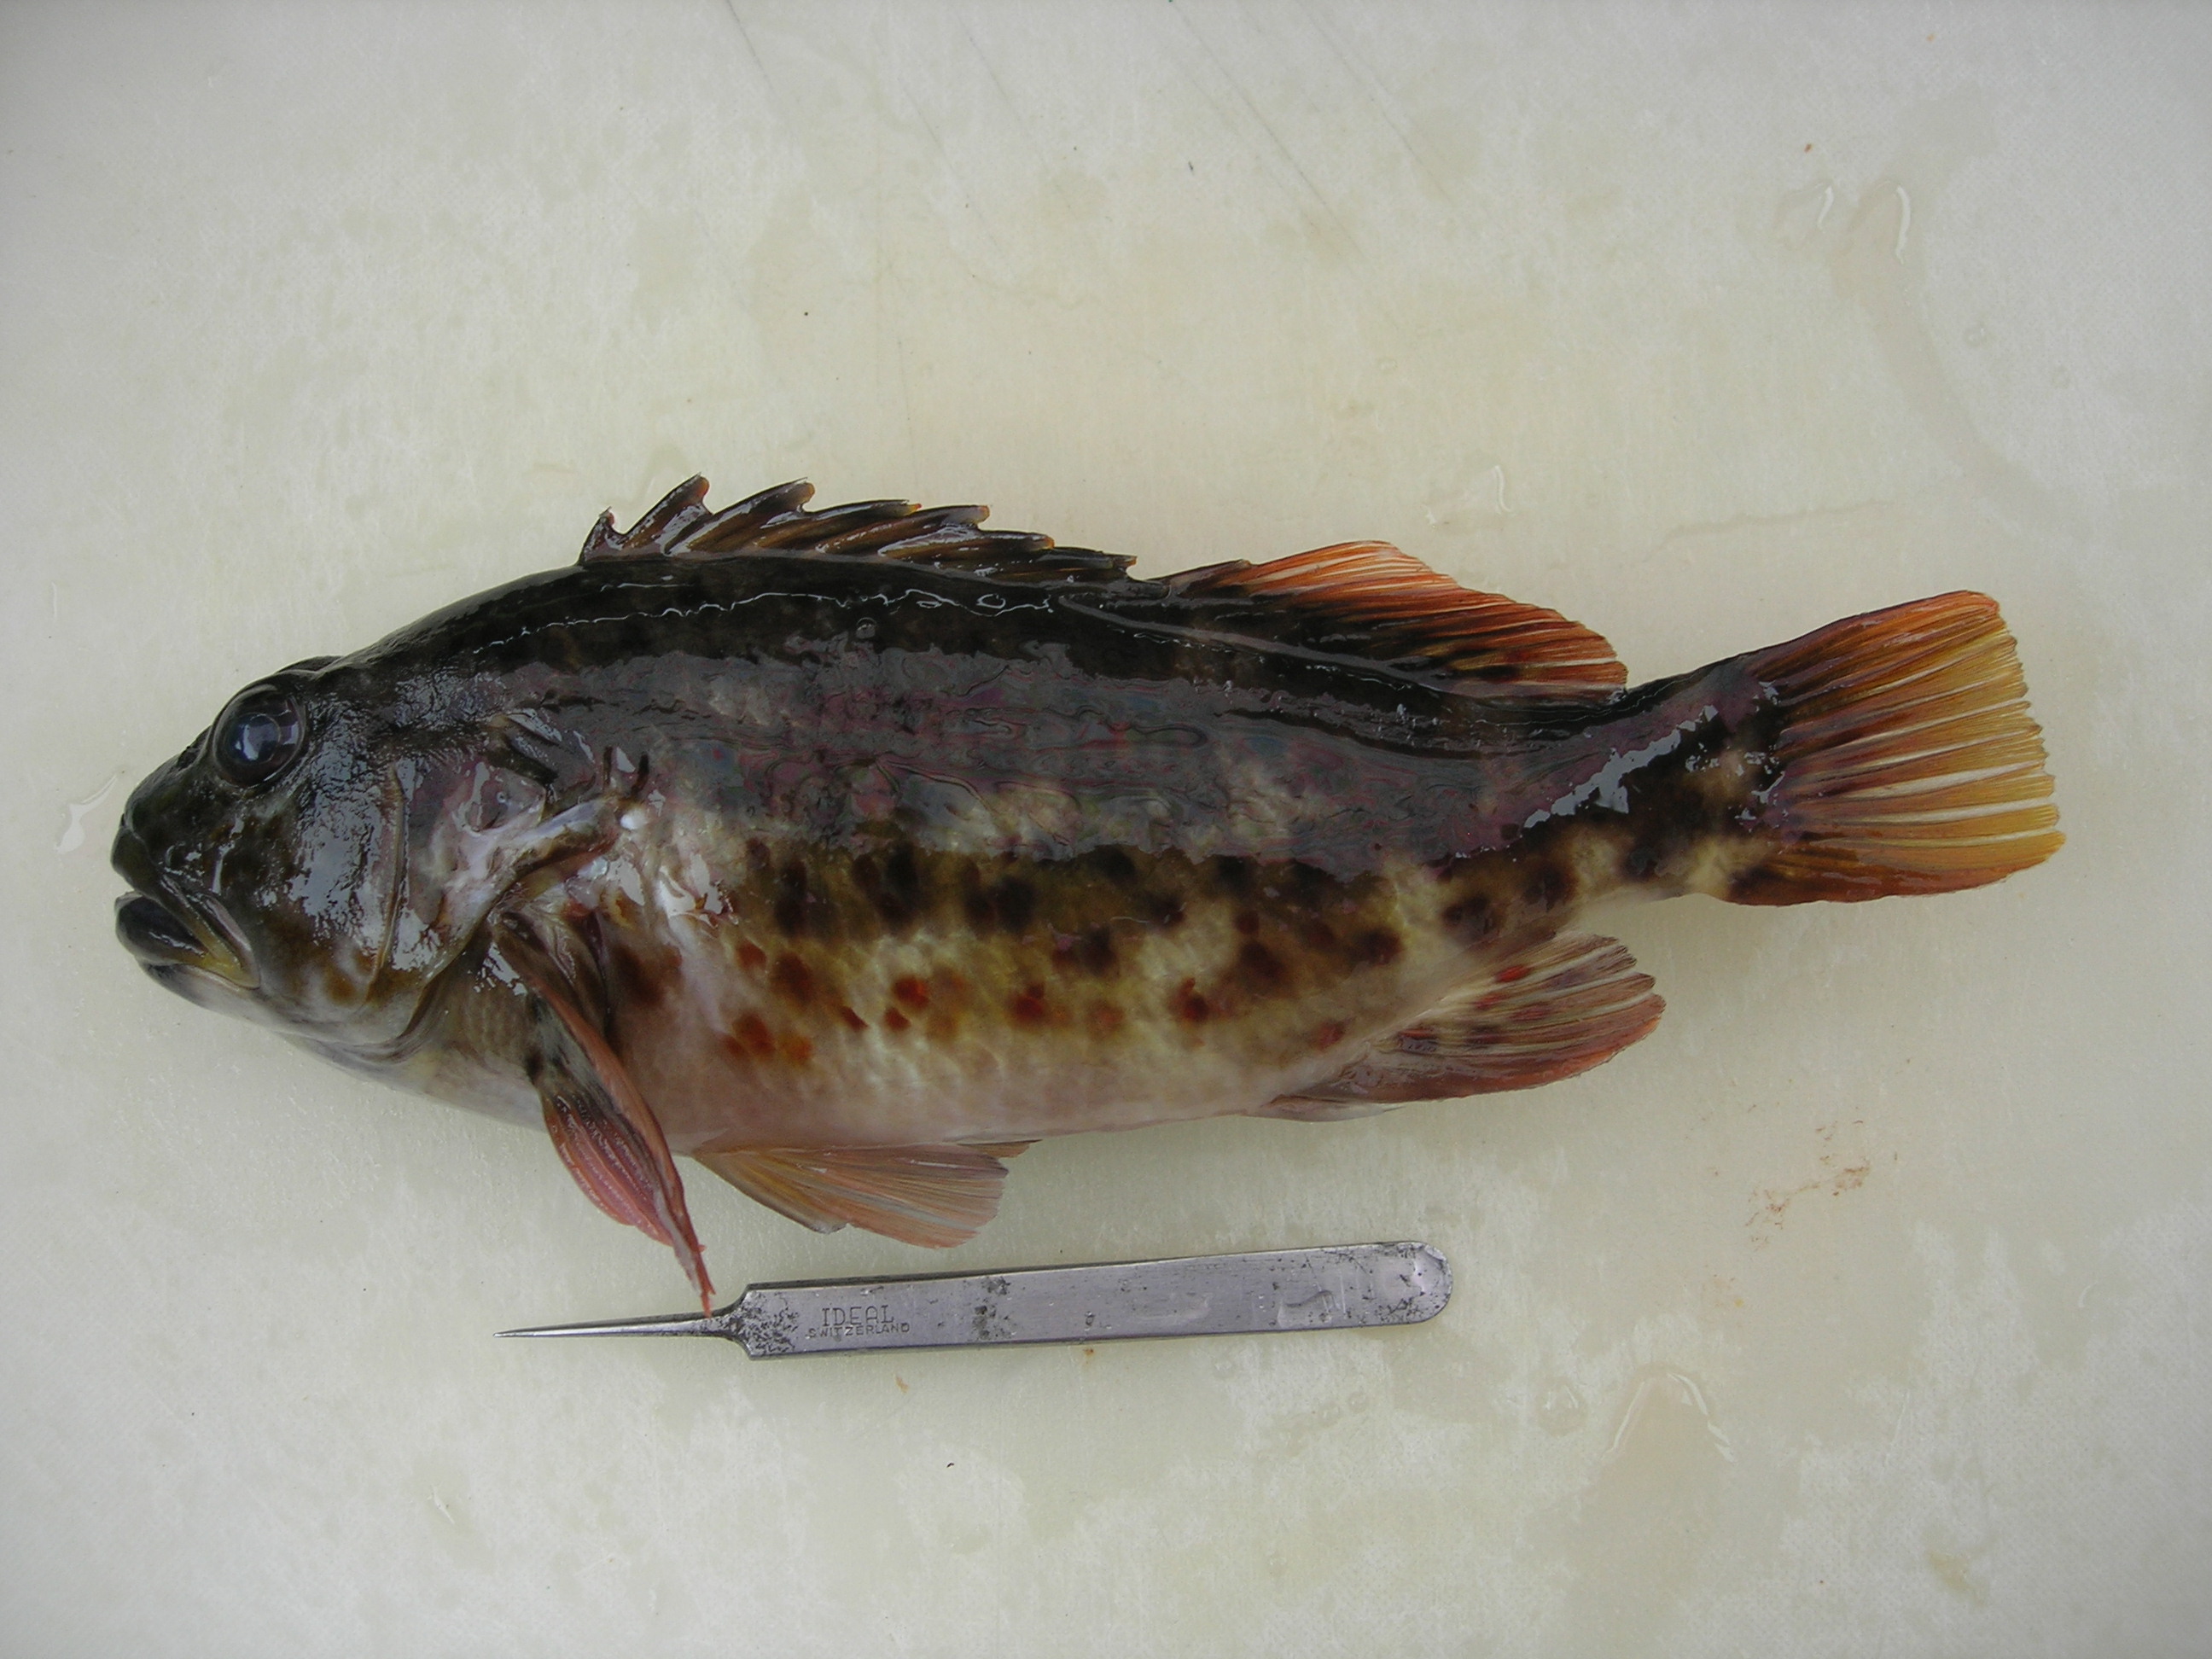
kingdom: Animalia
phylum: Chordata
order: Perciformes
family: Cirrhitidae
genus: Cirrhitus
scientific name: Cirrhitus pinnulatus
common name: Stocky hawkfish
